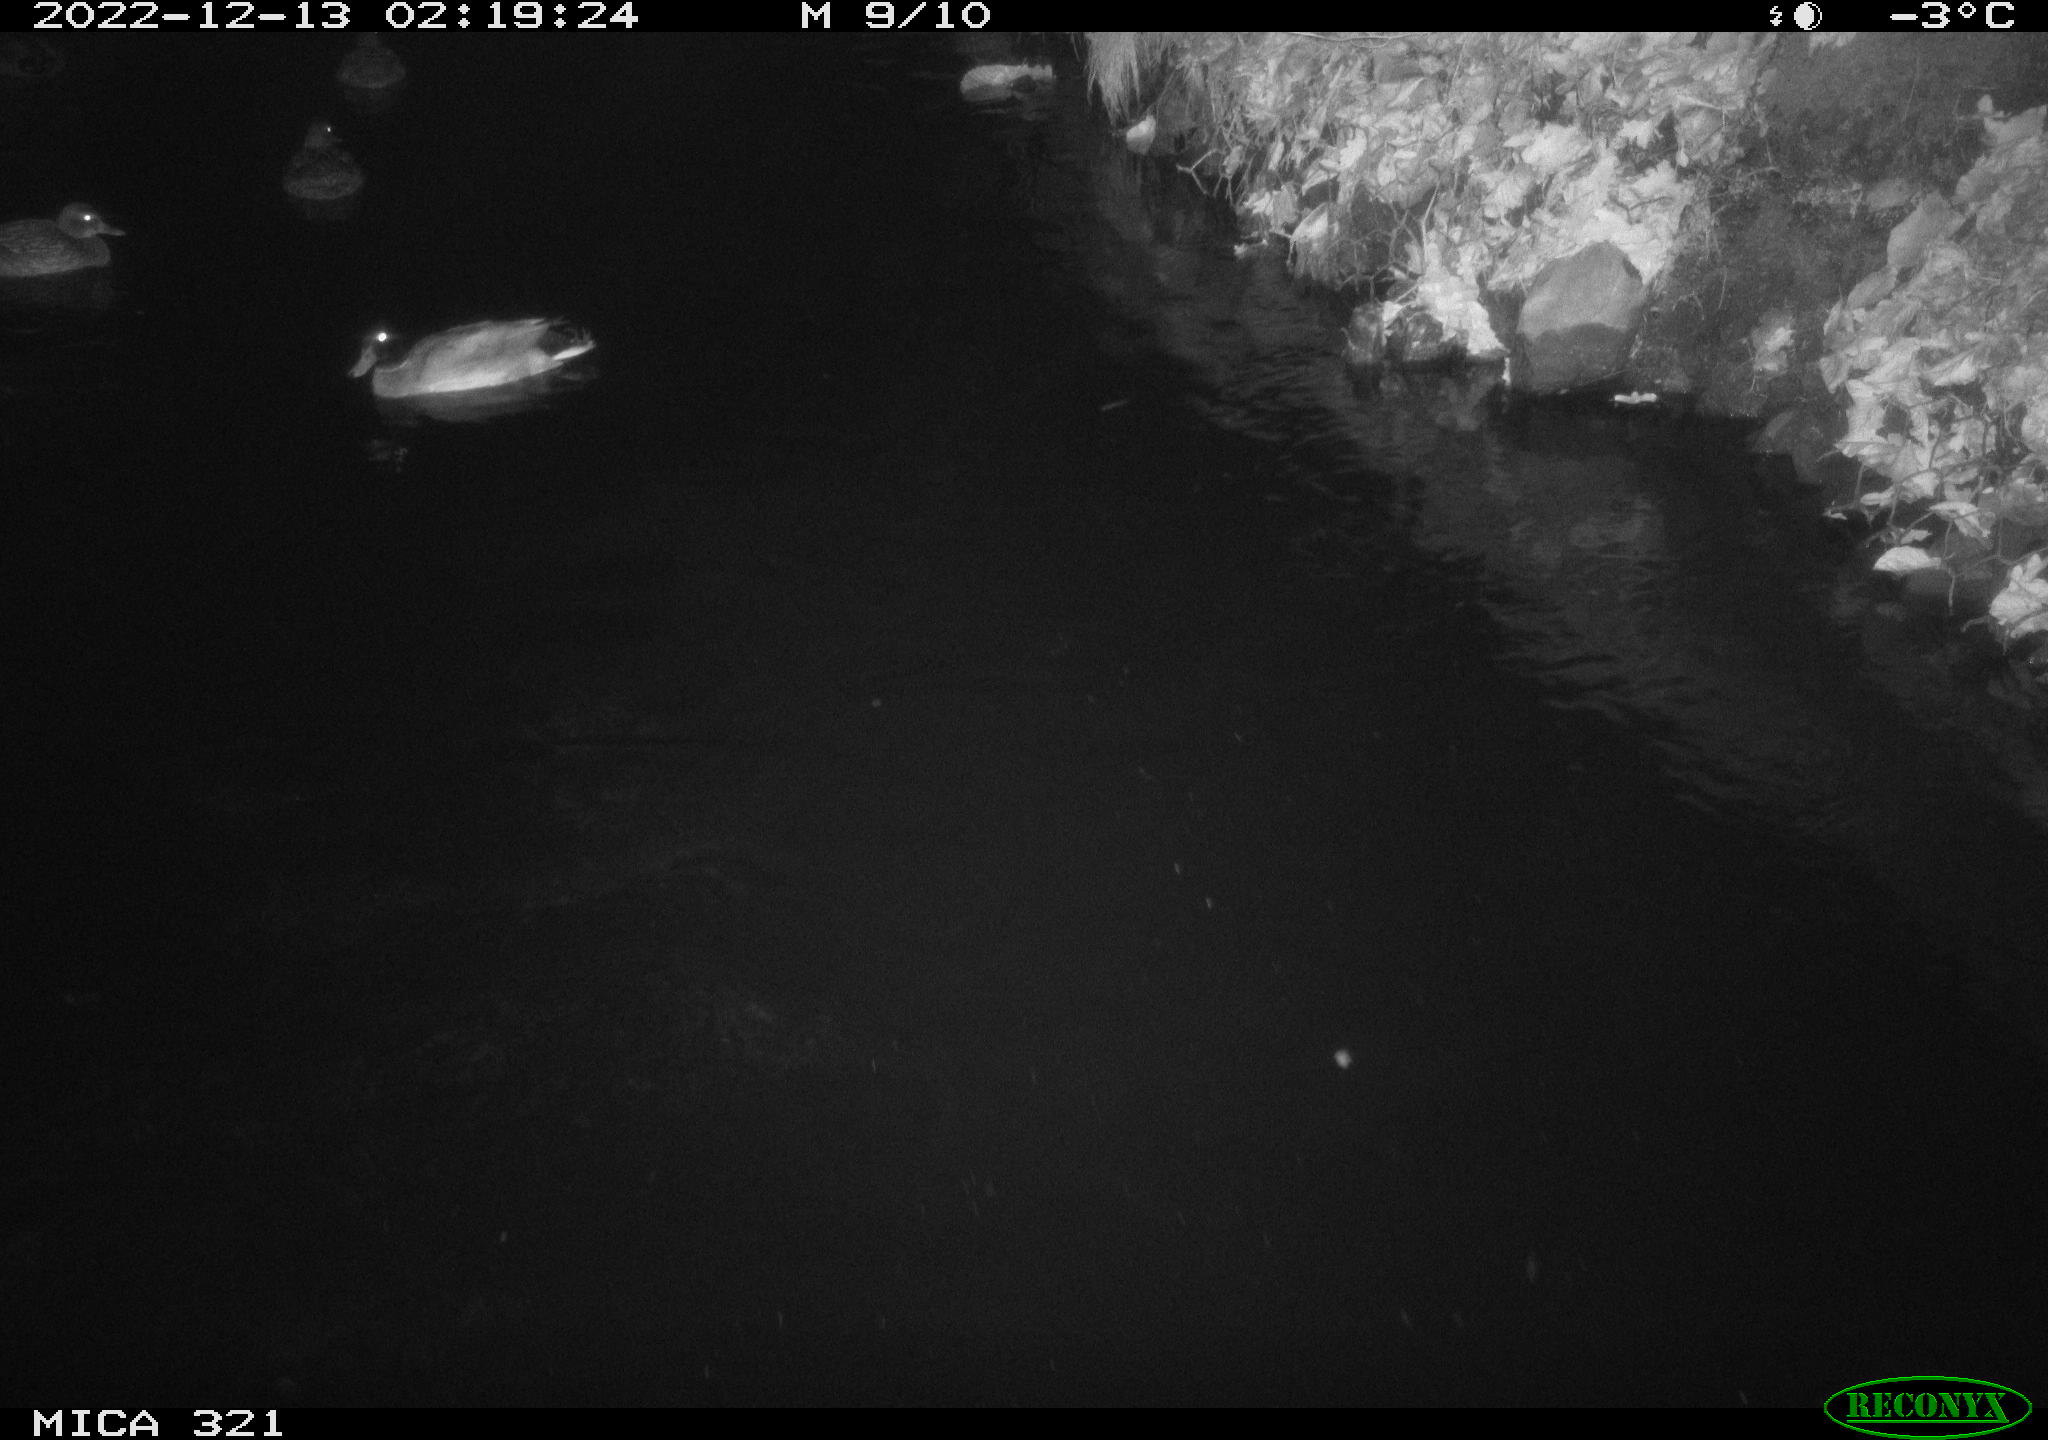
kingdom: Animalia
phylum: Chordata
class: Aves
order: Anseriformes
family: Anatidae
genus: Anas
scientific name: Anas
